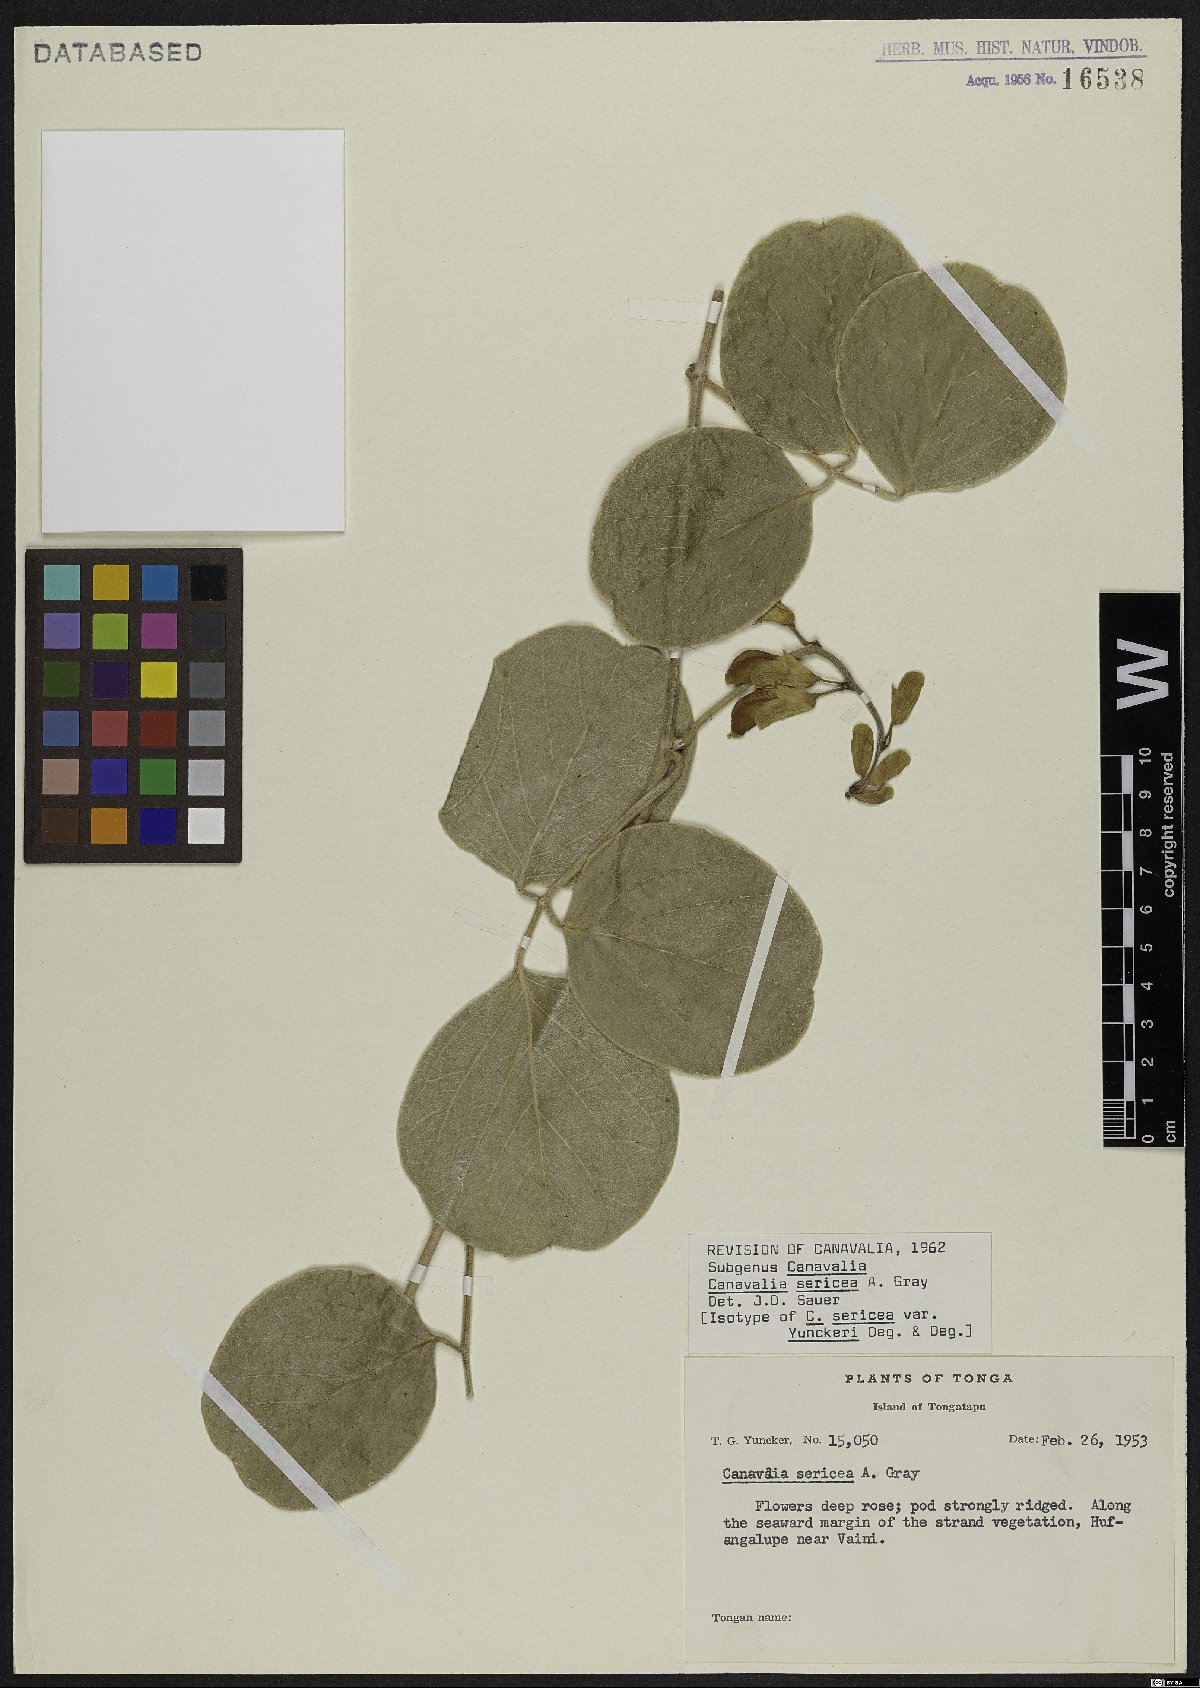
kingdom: Plantae
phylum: Tracheophyta
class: Magnoliopsida
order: Fabales
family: Fabaceae
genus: Canavalia
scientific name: Canavalia sericea
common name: Silky jackbean
